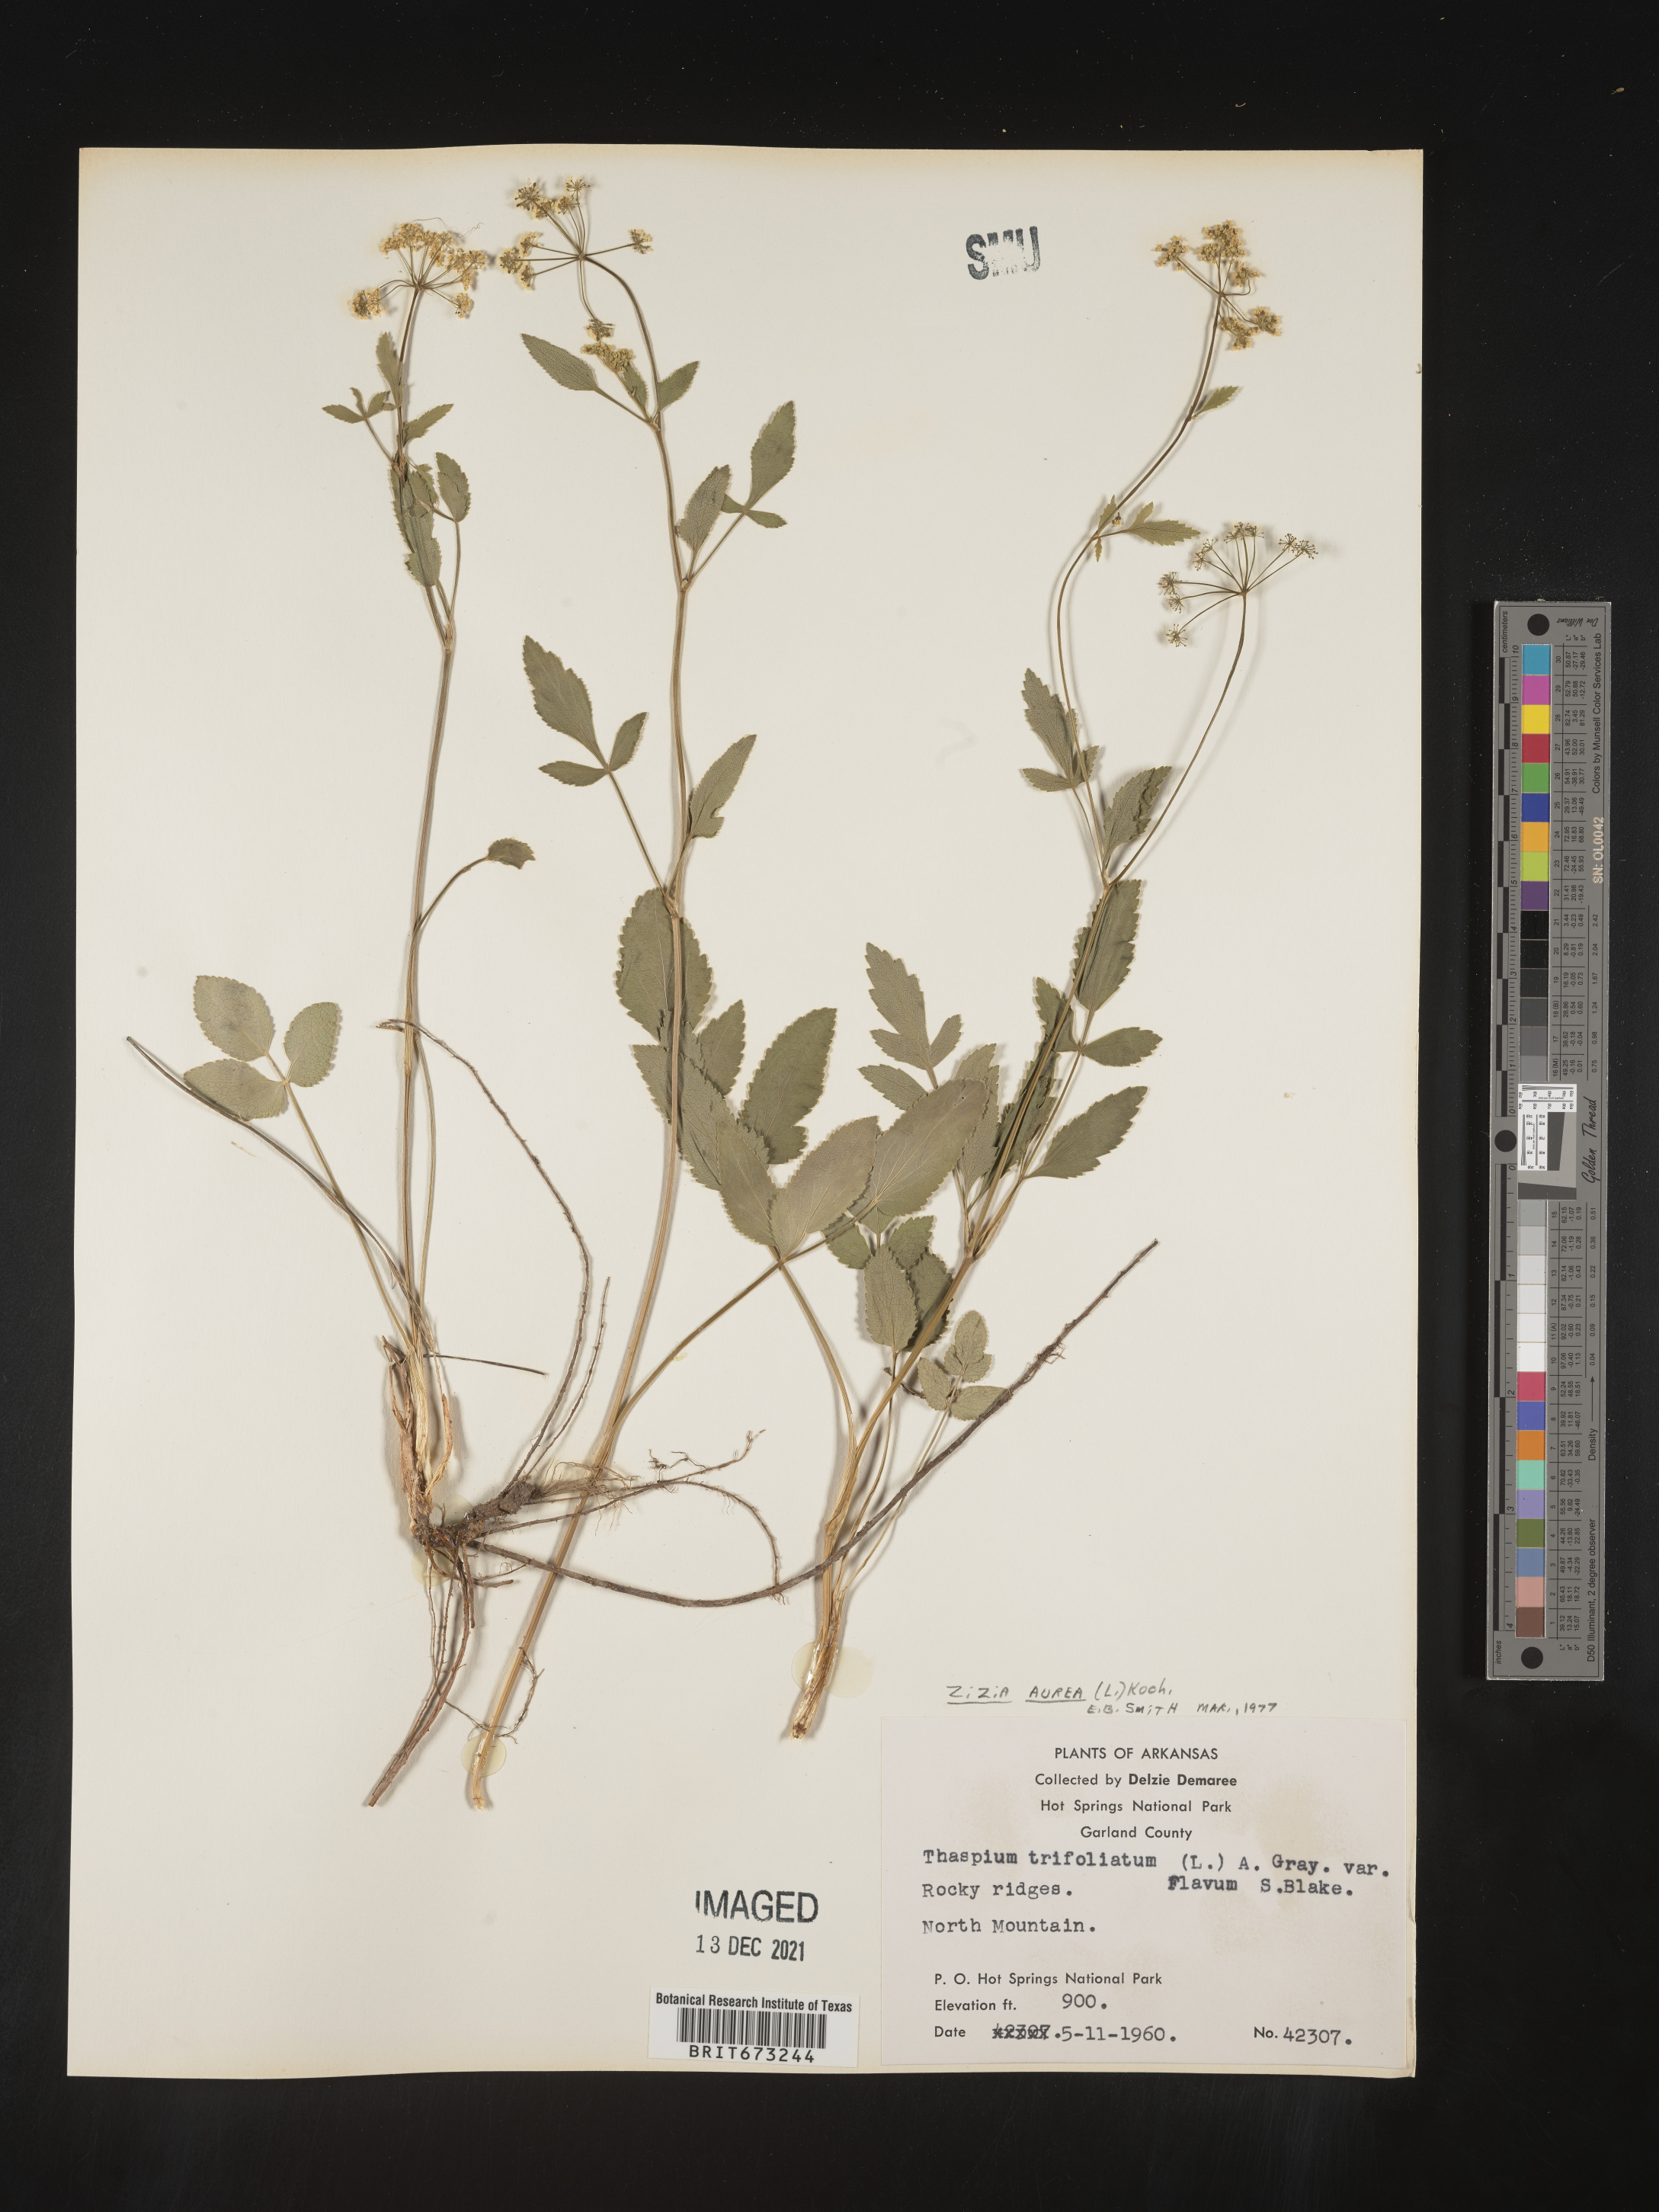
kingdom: Plantae
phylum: Tracheophyta
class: Magnoliopsida
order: Apiales
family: Apiaceae
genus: Zizia
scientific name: Zizia aurea
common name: Golden alexanders
